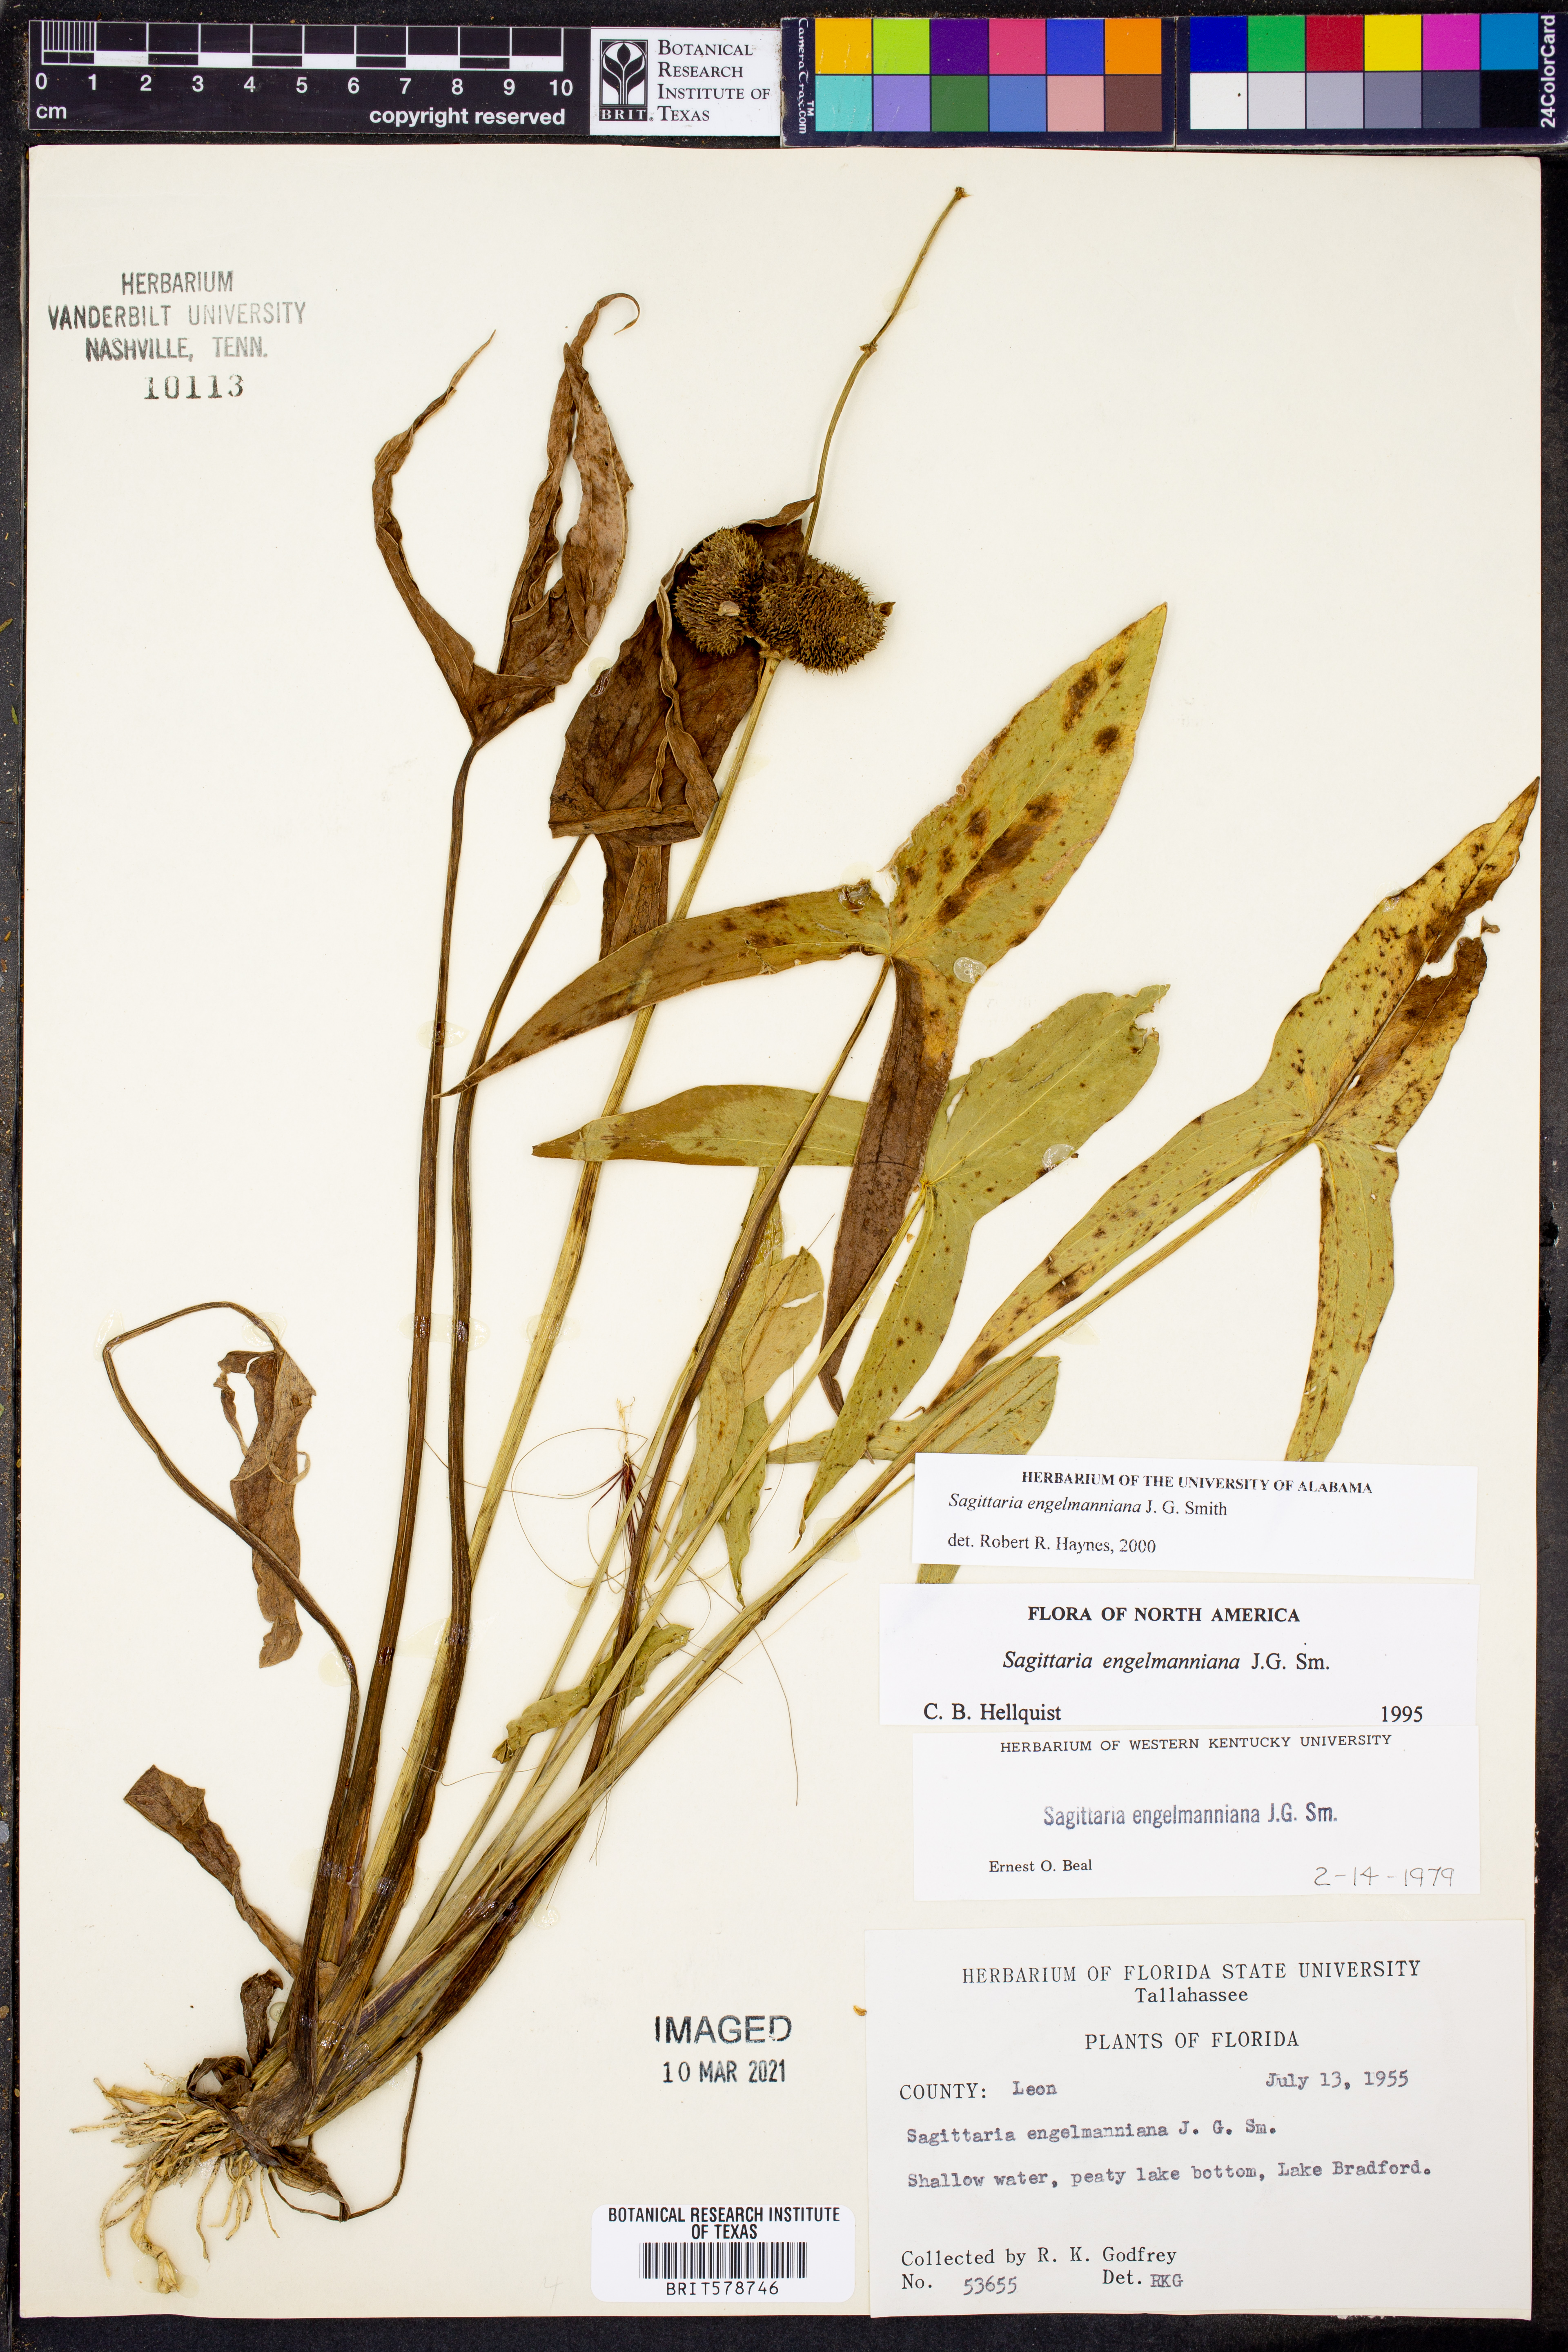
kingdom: Plantae
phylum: Tracheophyta
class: Liliopsida
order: Alismatales
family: Alismataceae
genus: Sagittaria
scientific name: Sagittaria engelmanniana
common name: Acid-water arrowhead
